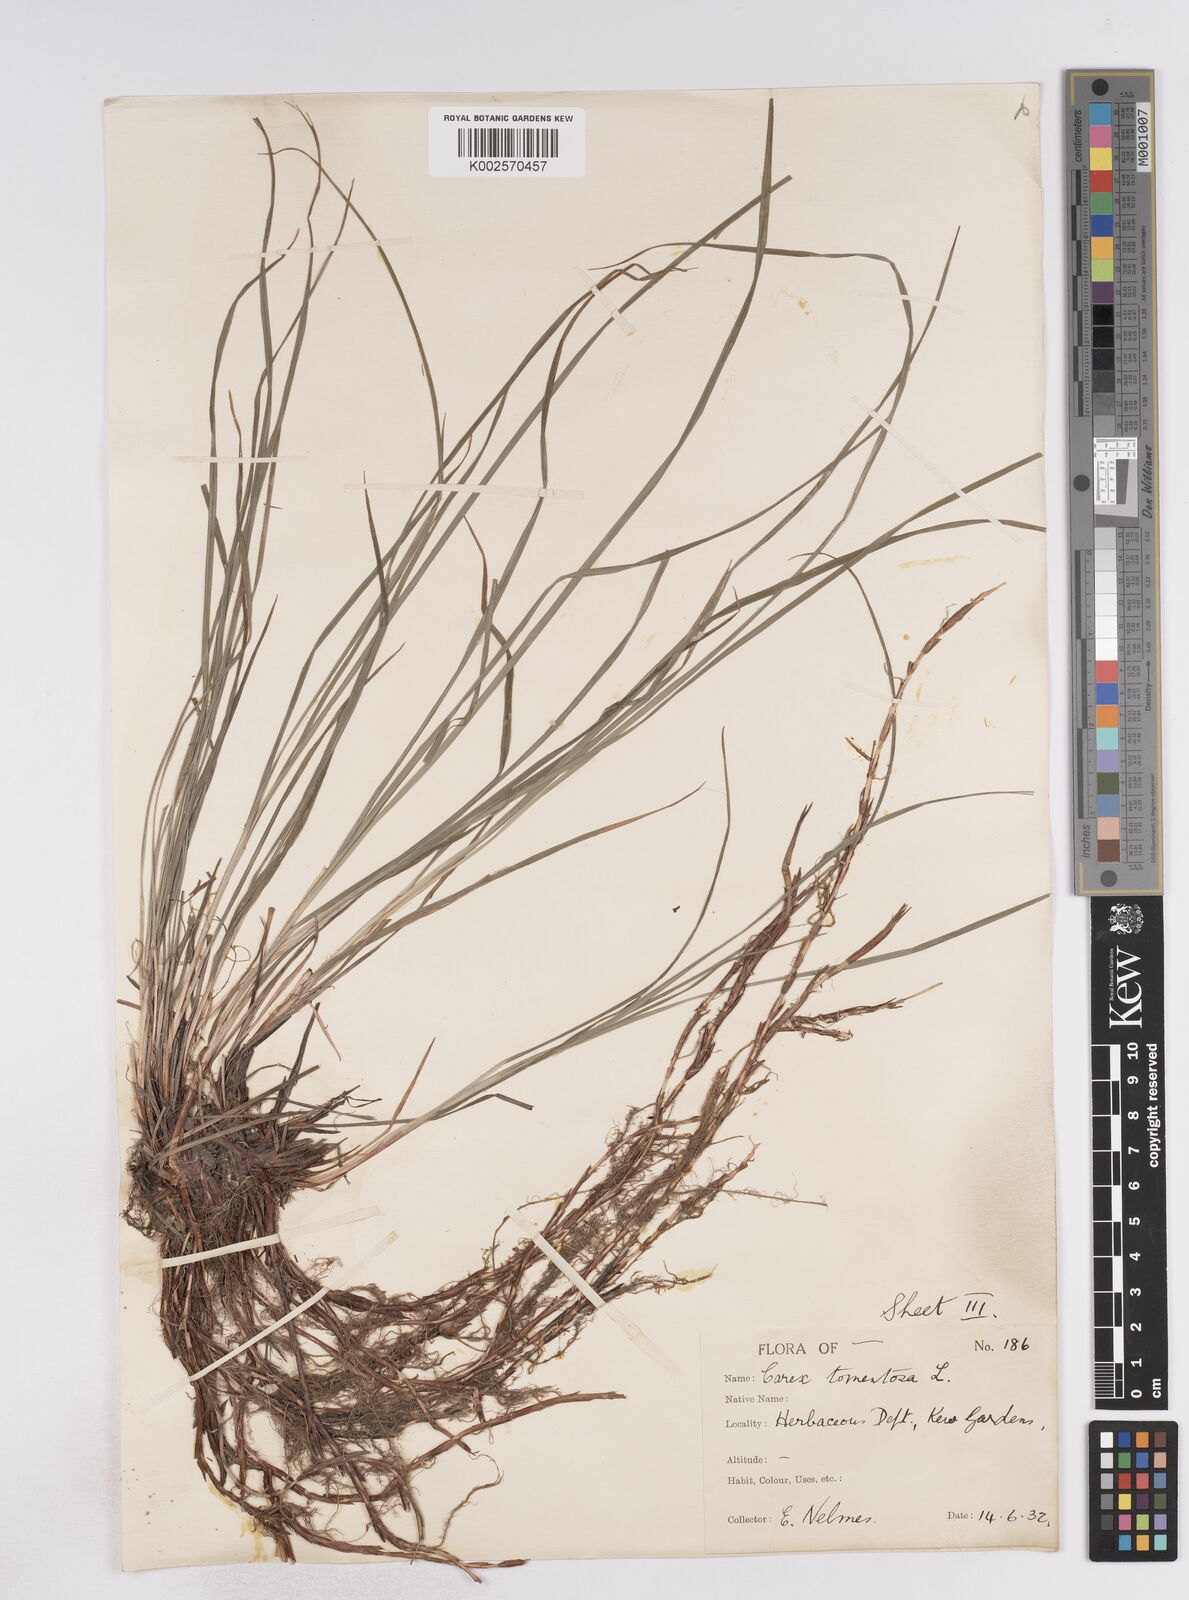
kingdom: Plantae
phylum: Tracheophyta
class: Liliopsida
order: Poales
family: Cyperaceae
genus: Carex
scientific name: Carex montana
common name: Soft-leaved sedge
